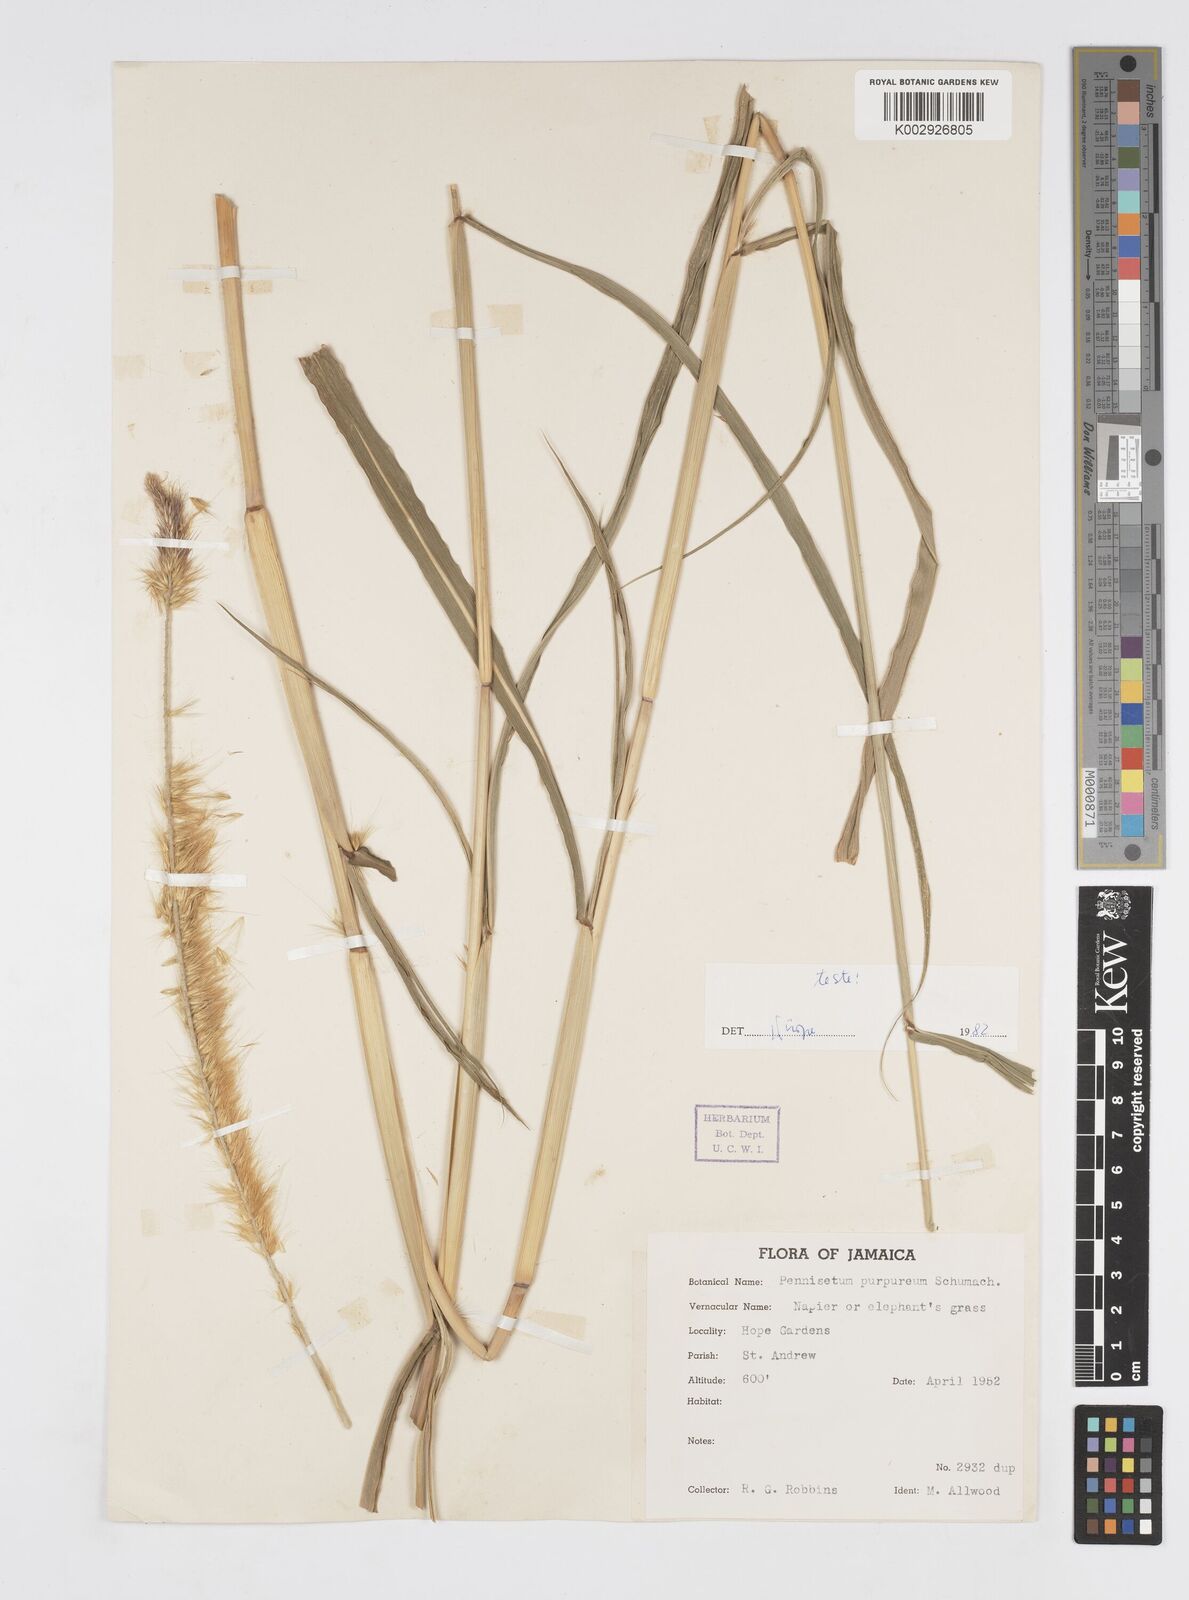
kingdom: Plantae
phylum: Tracheophyta
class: Liliopsida
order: Poales
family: Poaceae
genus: Cenchrus
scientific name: Cenchrus purpureus
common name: Elephant grass
